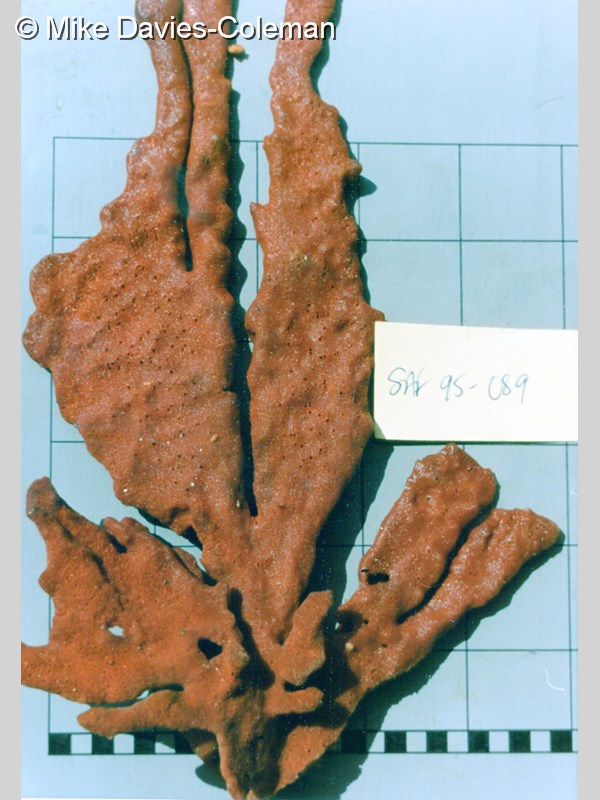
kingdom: Animalia
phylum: Porifera
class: Demospongiae
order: Poecilosclerida
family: Microcionidae
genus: Clathria
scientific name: Clathria
